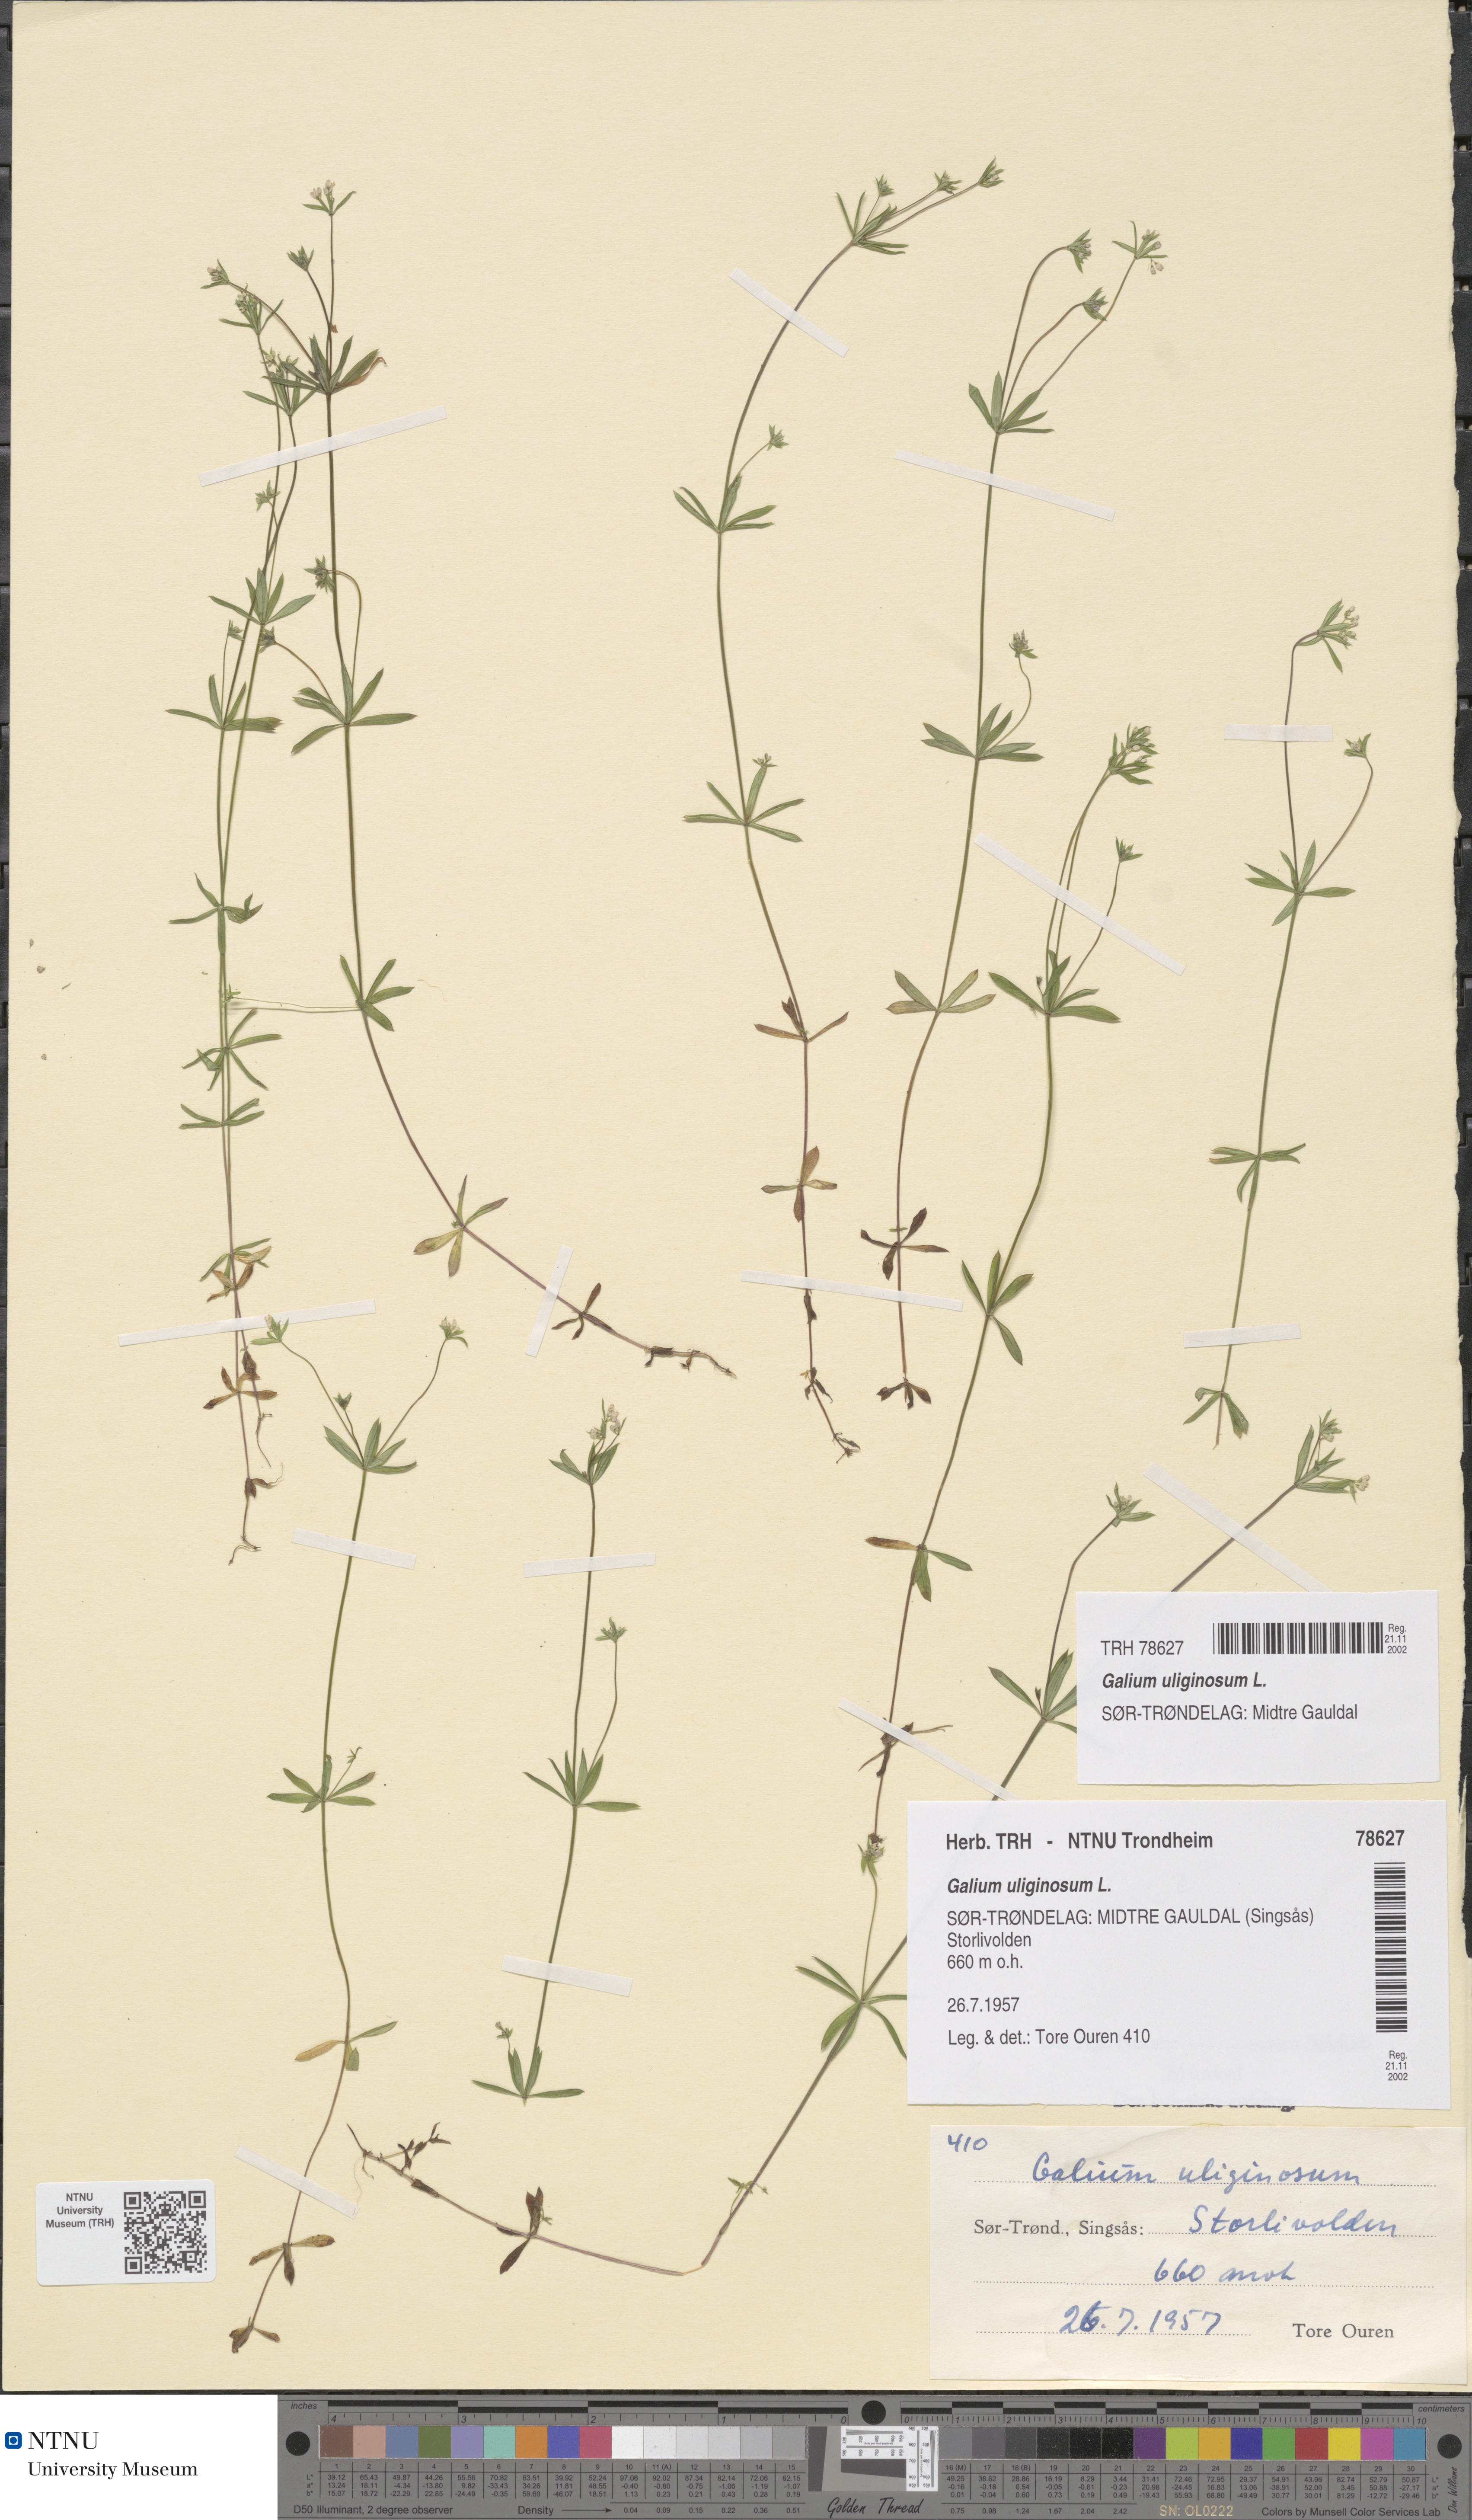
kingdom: Plantae
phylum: Tracheophyta
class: Magnoliopsida
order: Gentianales
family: Rubiaceae
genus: Galium
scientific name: Galium uliginosum
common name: Fen bedstraw
